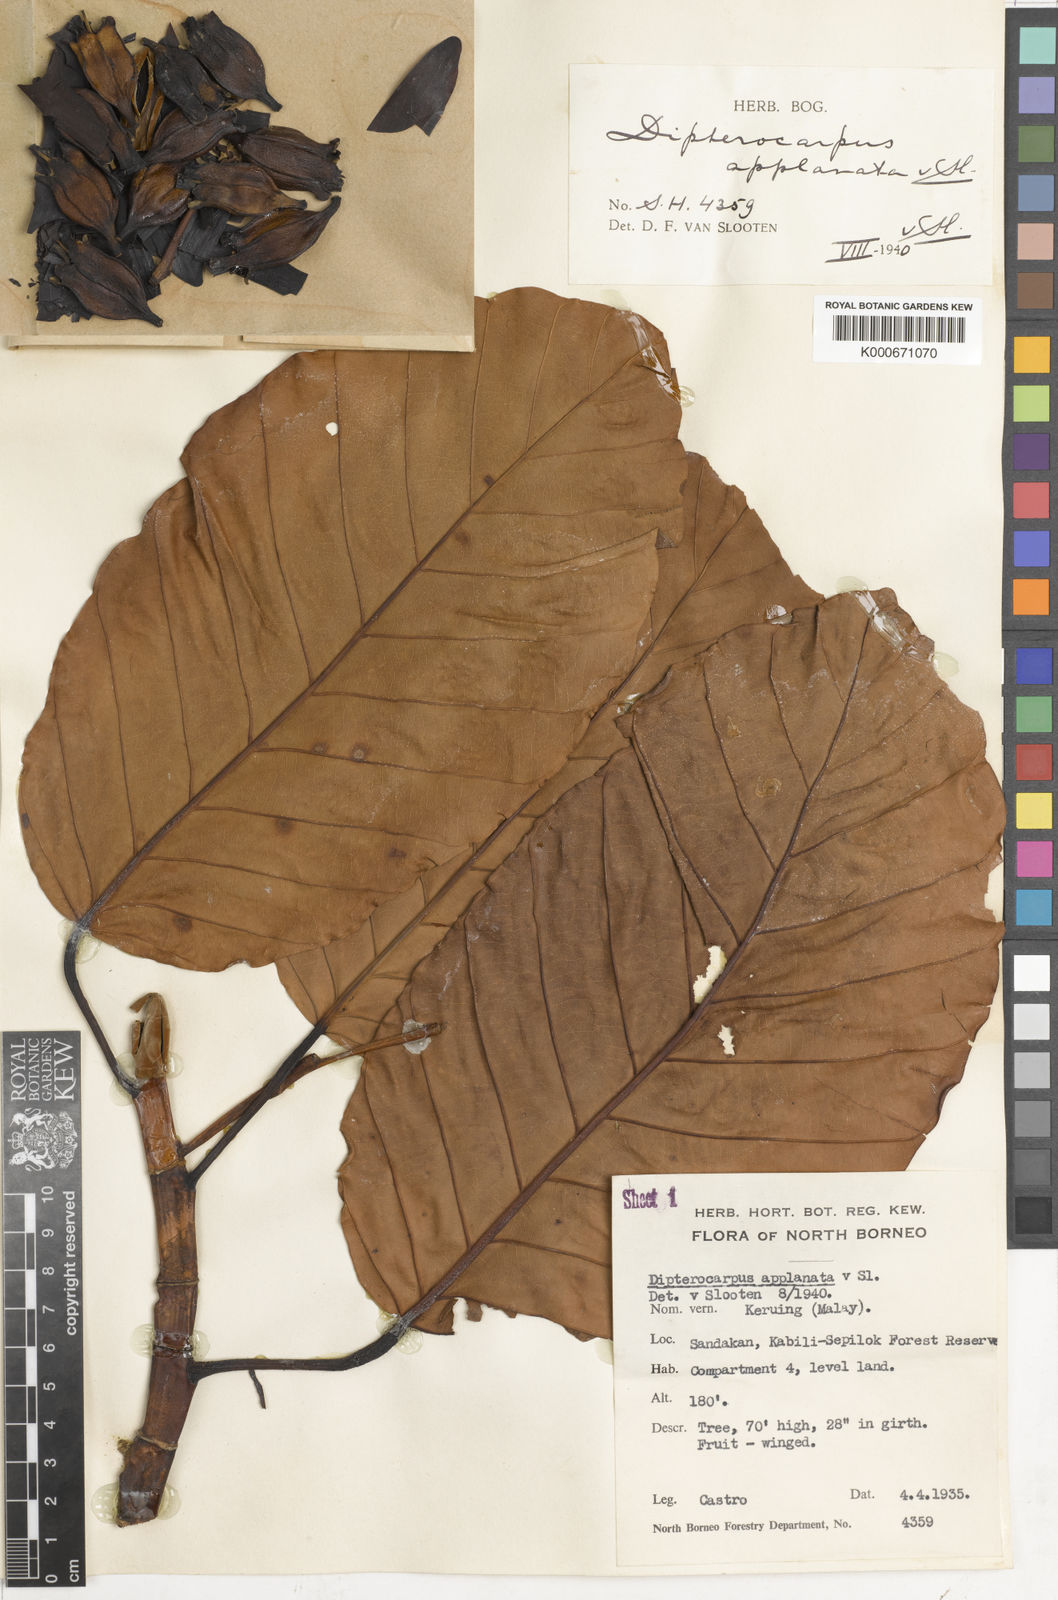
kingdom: Plantae
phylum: Tracheophyta
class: Magnoliopsida
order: Malvales
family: Dipterocarpaceae
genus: Dipterocarpus
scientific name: Dipterocarpus applanatus
